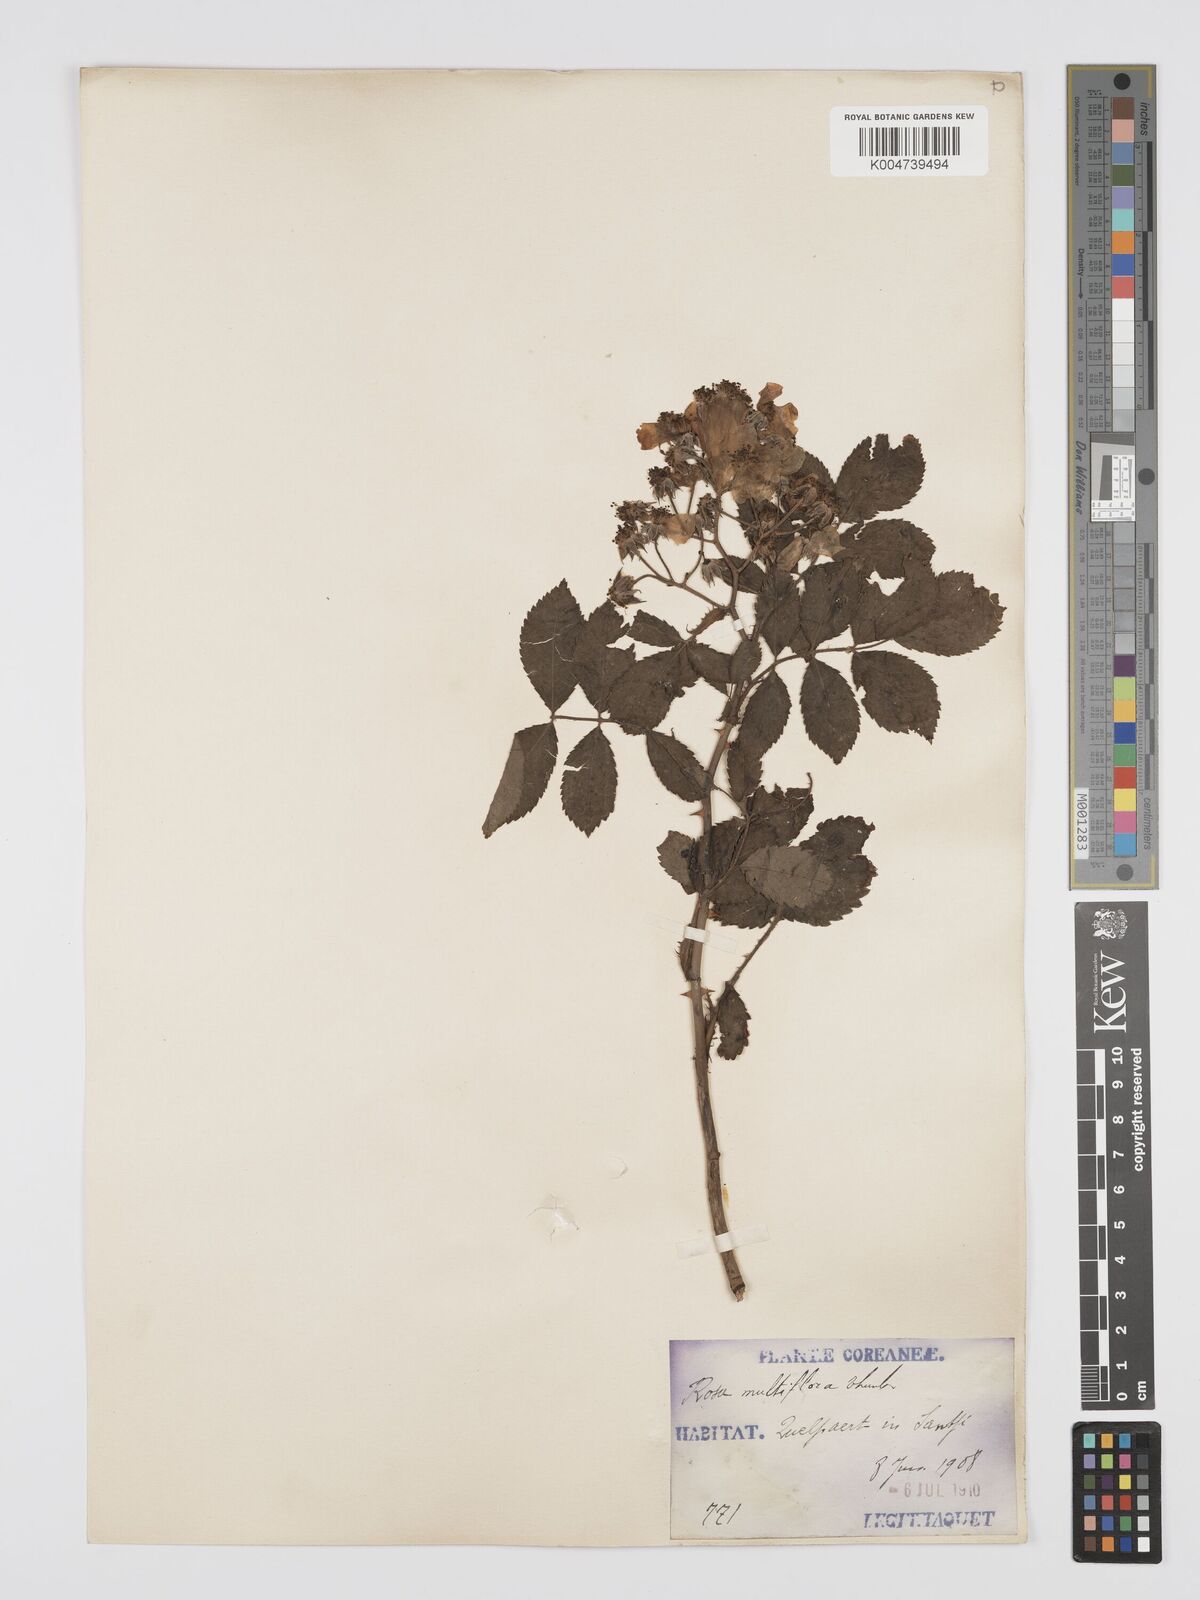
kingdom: Plantae
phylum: Tracheophyta
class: Magnoliopsida
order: Rosales
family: Rosaceae
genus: Rosa
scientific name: Rosa
